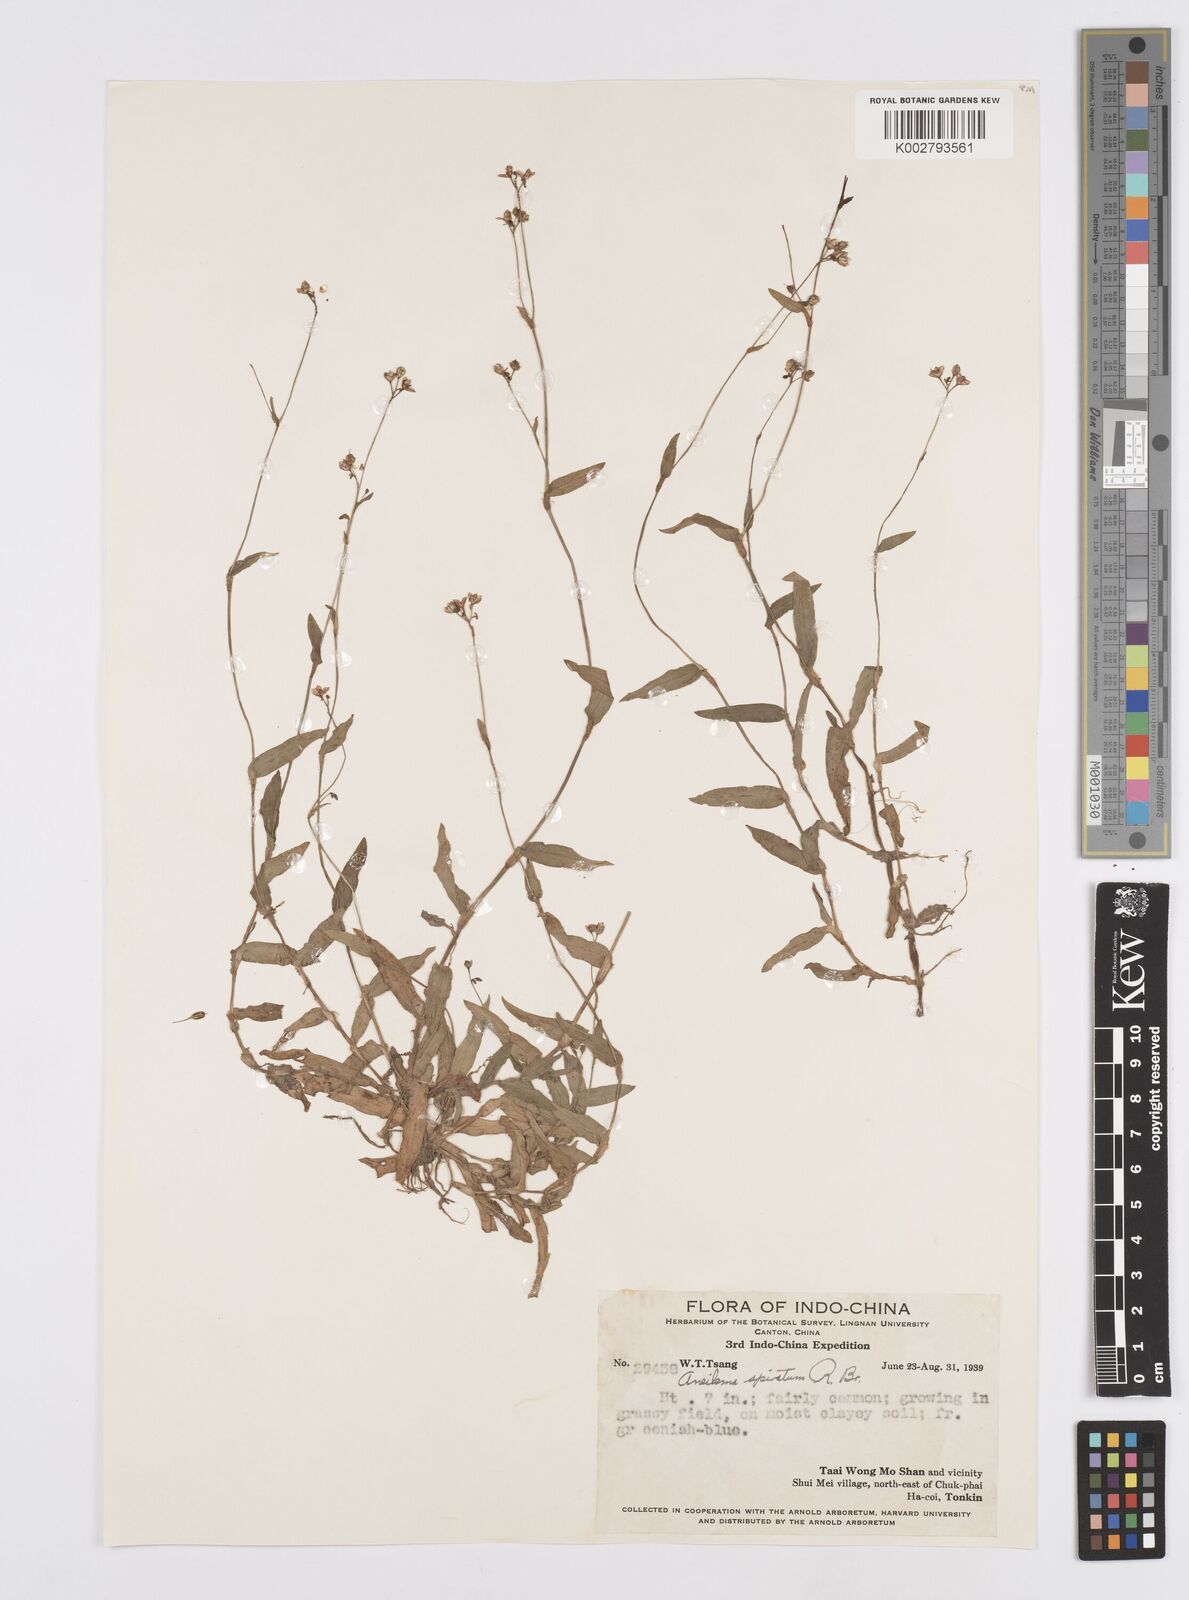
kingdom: Plantae
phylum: Tracheophyta
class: Liliopsida
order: Commelinales
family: Commelinaceae
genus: Murdannia
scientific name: Murdannia spirata
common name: Asiatic dewflower
